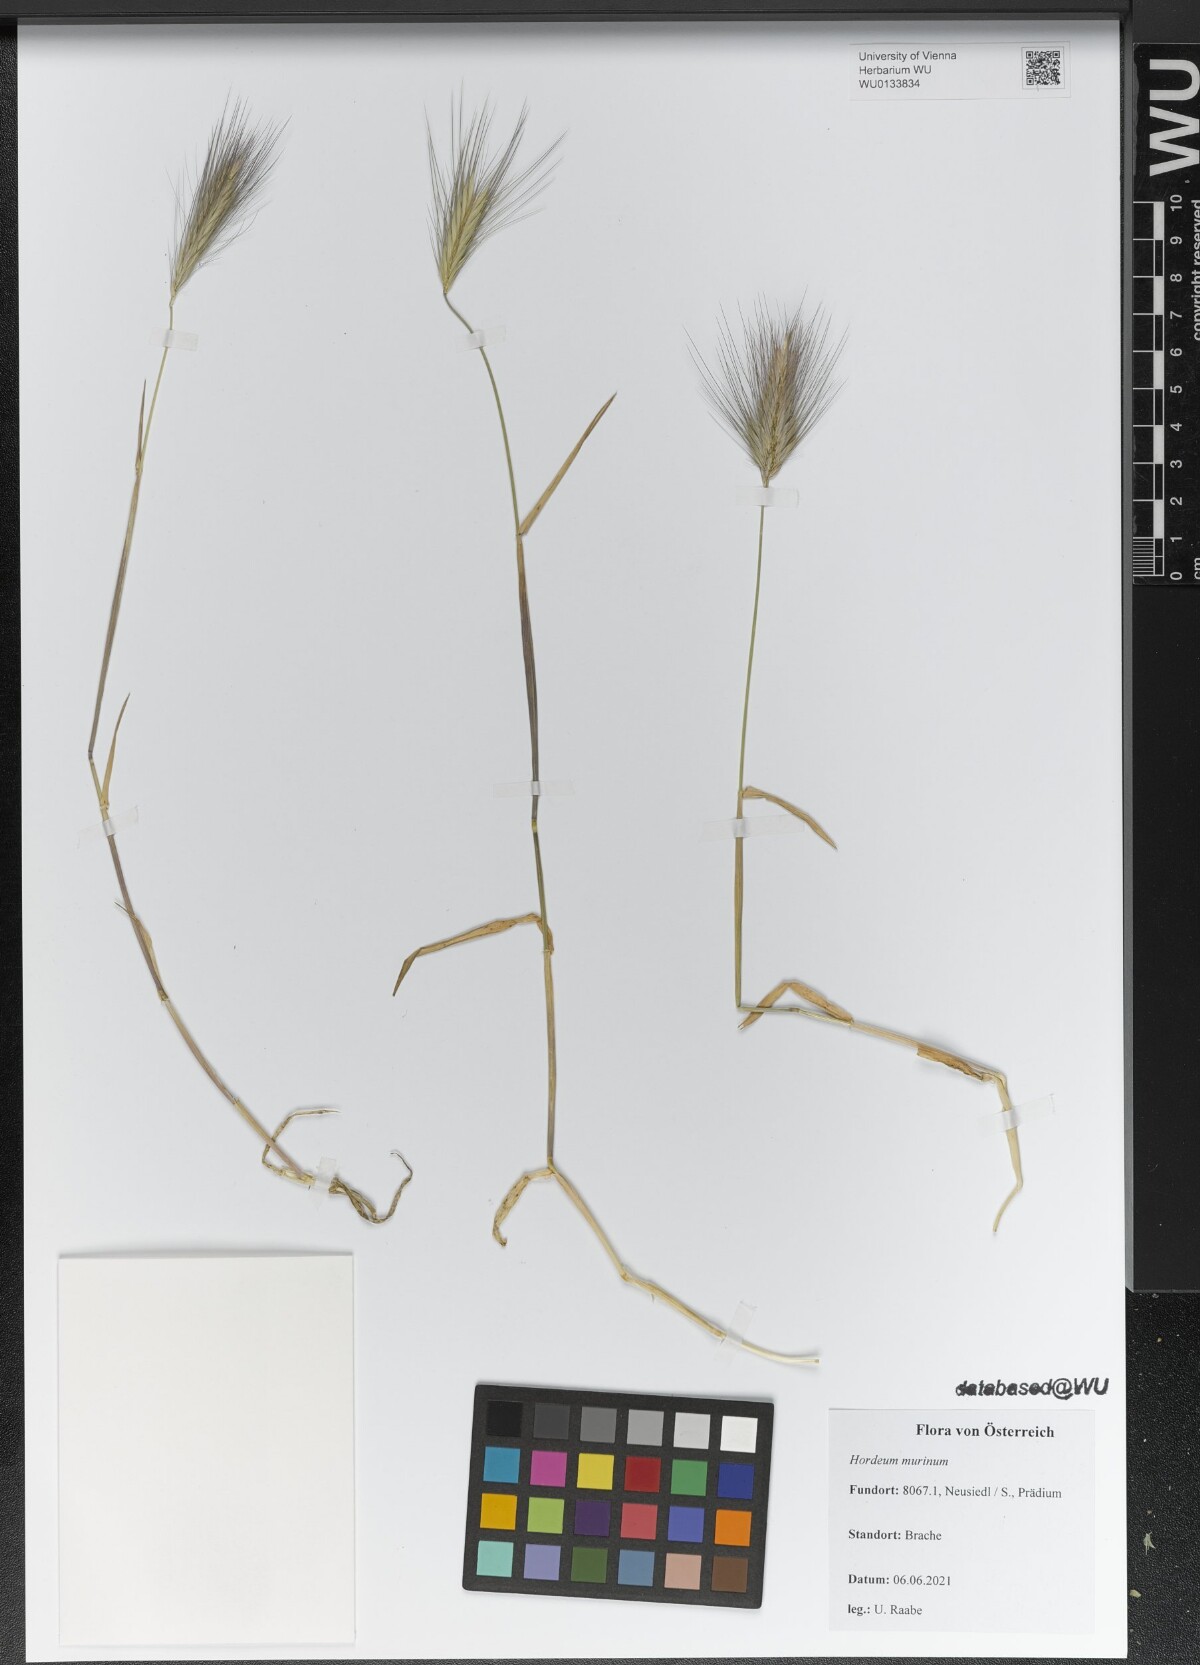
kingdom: Plantae
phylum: Tracheophyta
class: Liliopsida
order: Poales
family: Poaceae
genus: Hordeum
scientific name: Hordeum murinum
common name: Wall barley
